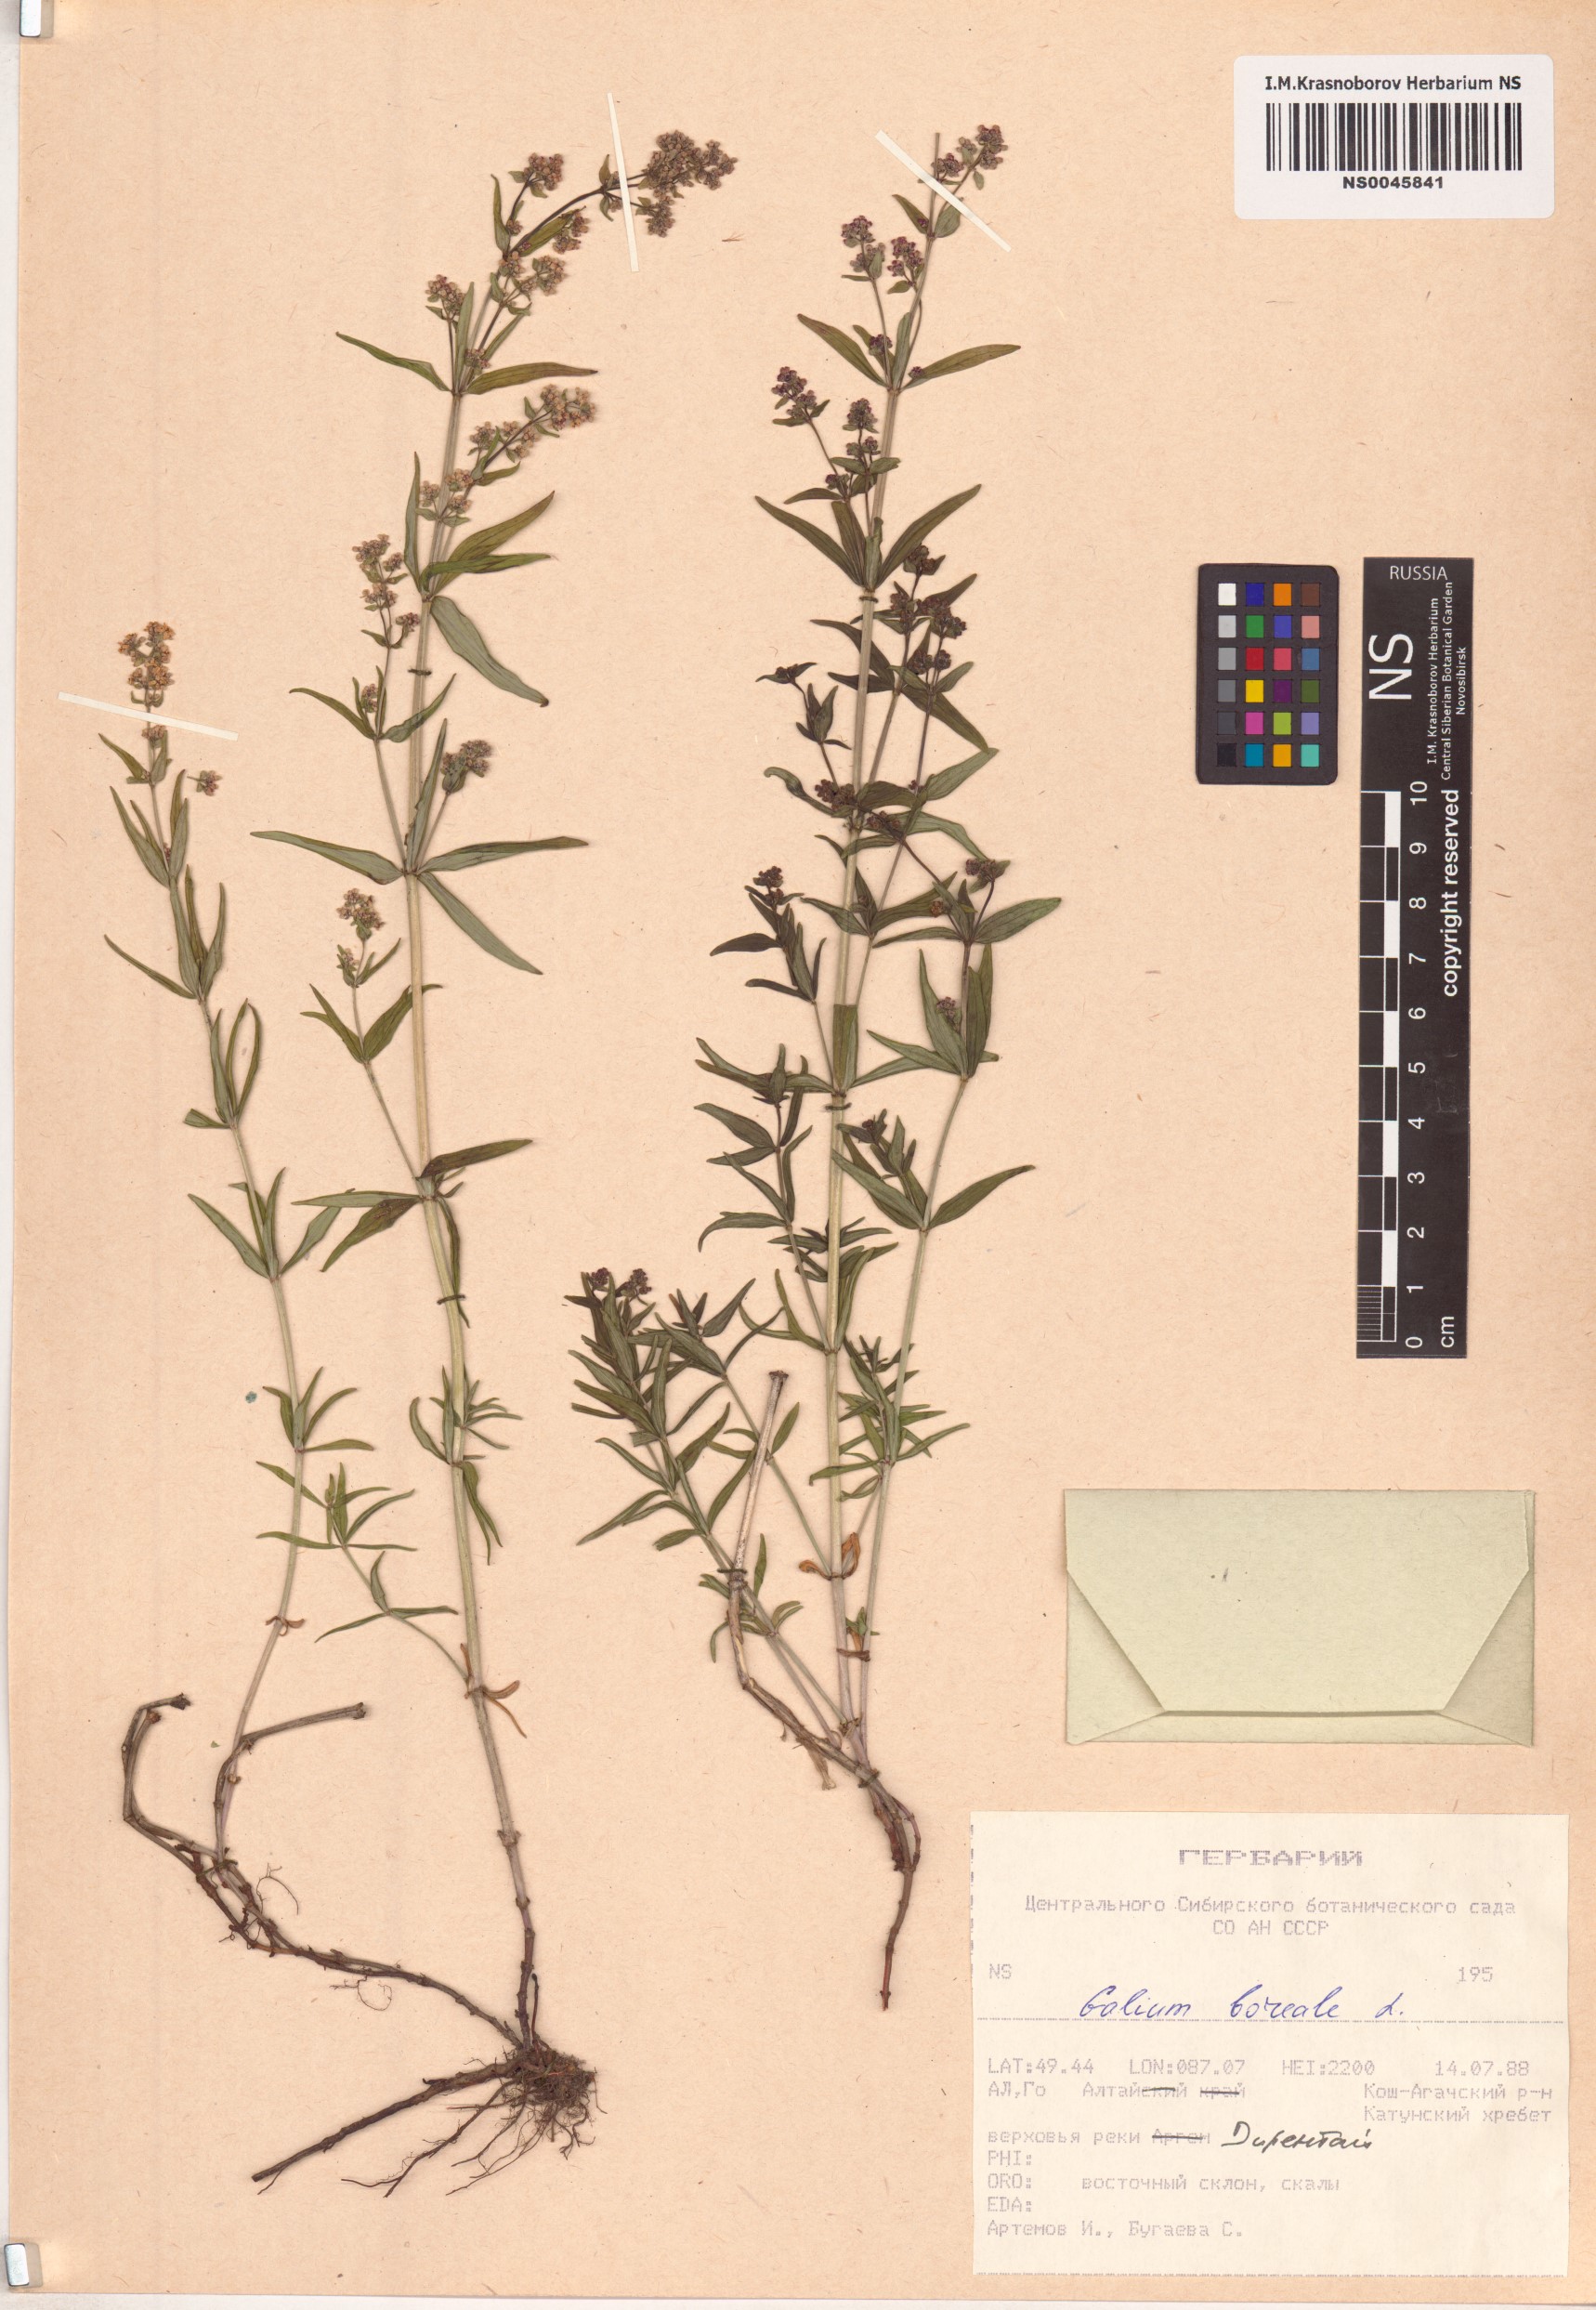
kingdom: Plantae
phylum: Tracheophyta
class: Magnoliopsida
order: Gentianales
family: Rubiaceae
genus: Galium
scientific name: Galium boreale
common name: Northern bedstraw
